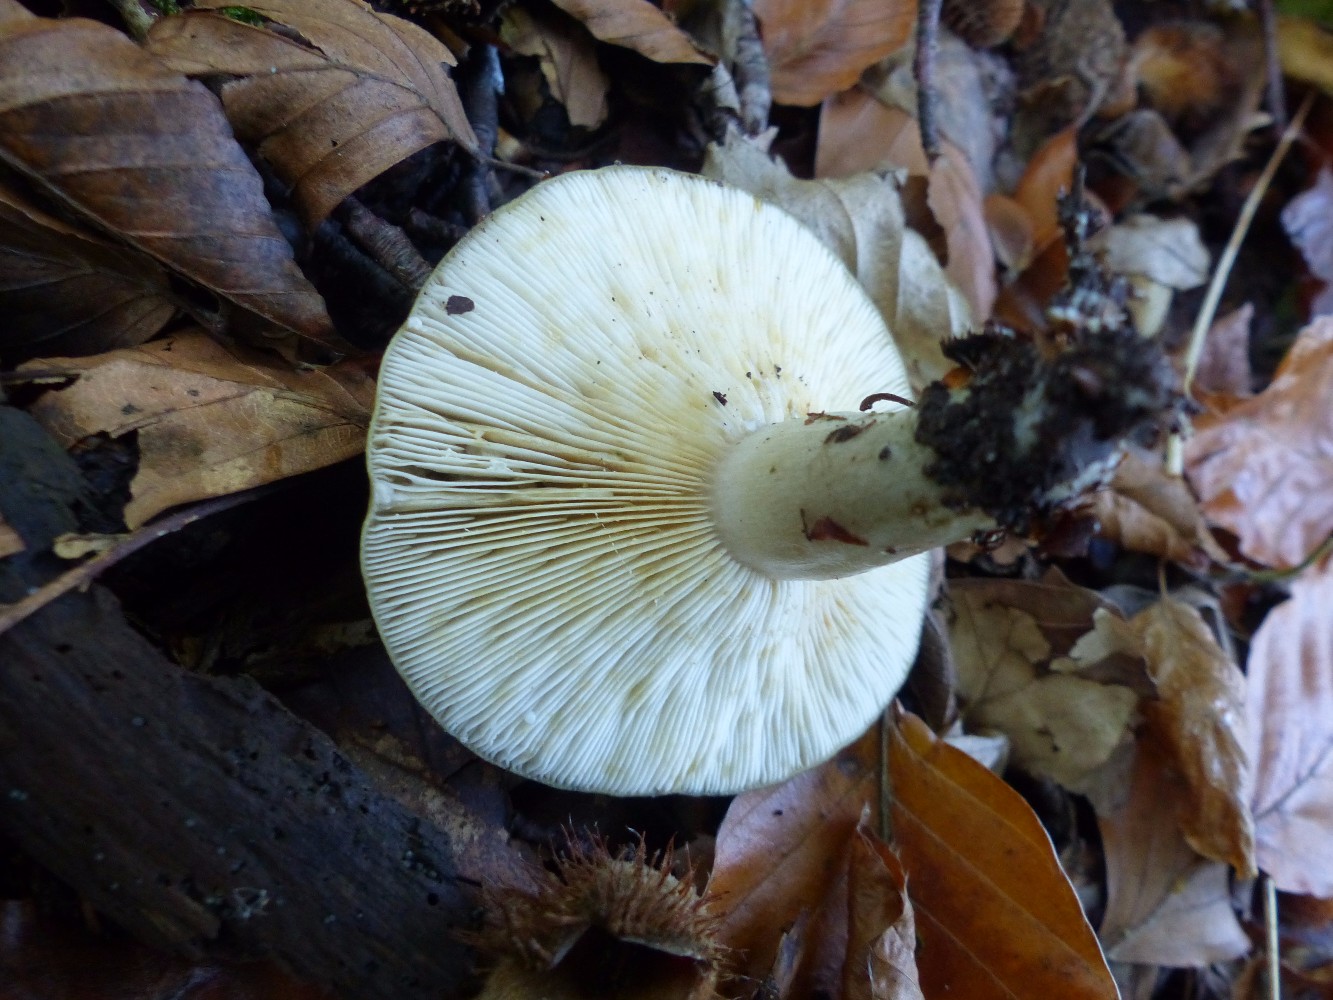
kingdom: Fungi
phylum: Basidiomycota
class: Agaricomycetes
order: Russulales
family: Russulaceae
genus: Lactarius
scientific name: Lactarius blennius
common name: dråbeplettet mælkehat
